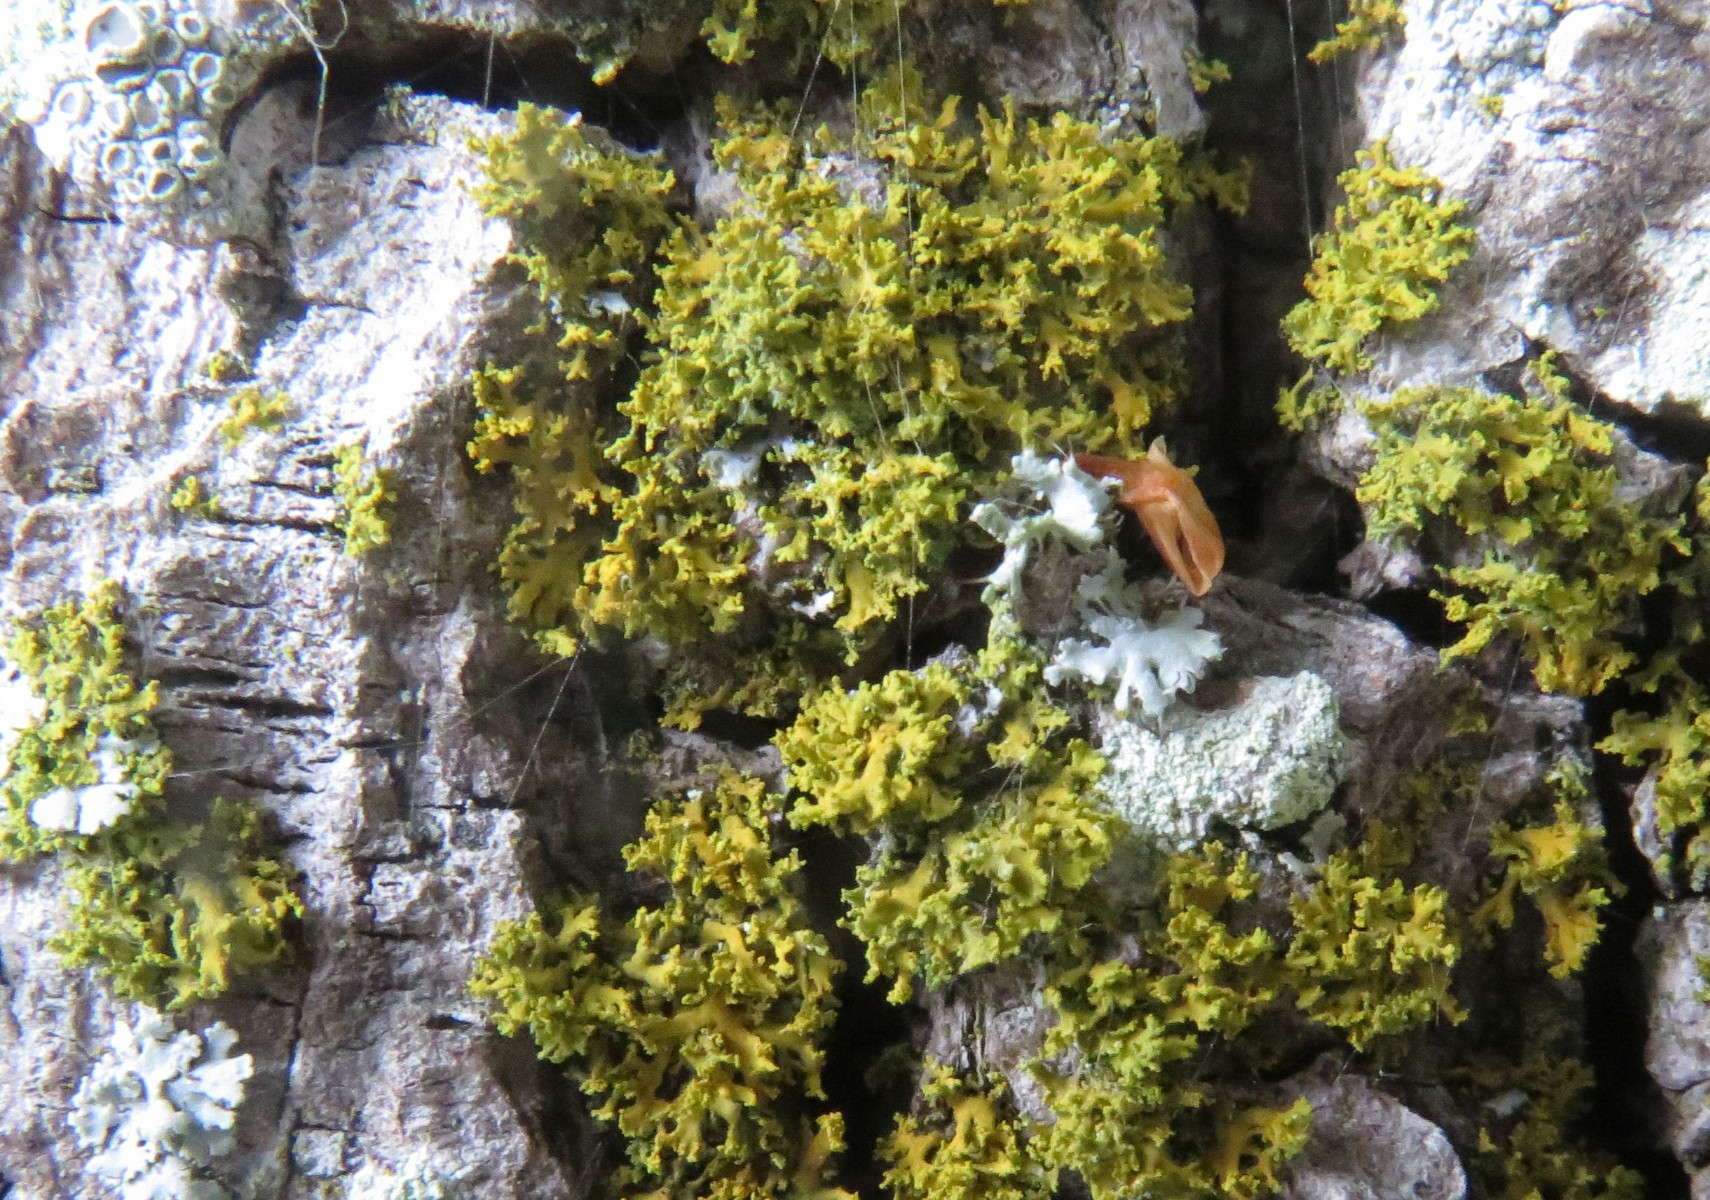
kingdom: Fungi
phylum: Ascomycota
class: Lecanoromycetes
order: Teloschistales
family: Teloschistaceae
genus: Polycauliona
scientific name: Polycauliona candelaria
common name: tue-orangelav
